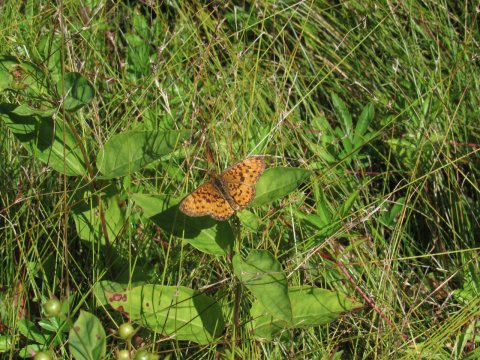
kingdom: Animalia
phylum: Arthropoda
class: Insecta
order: Lepidoptera
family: Nymphalidae
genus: Boloria
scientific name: Boloria selene
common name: Silver-bordered Fritillary
